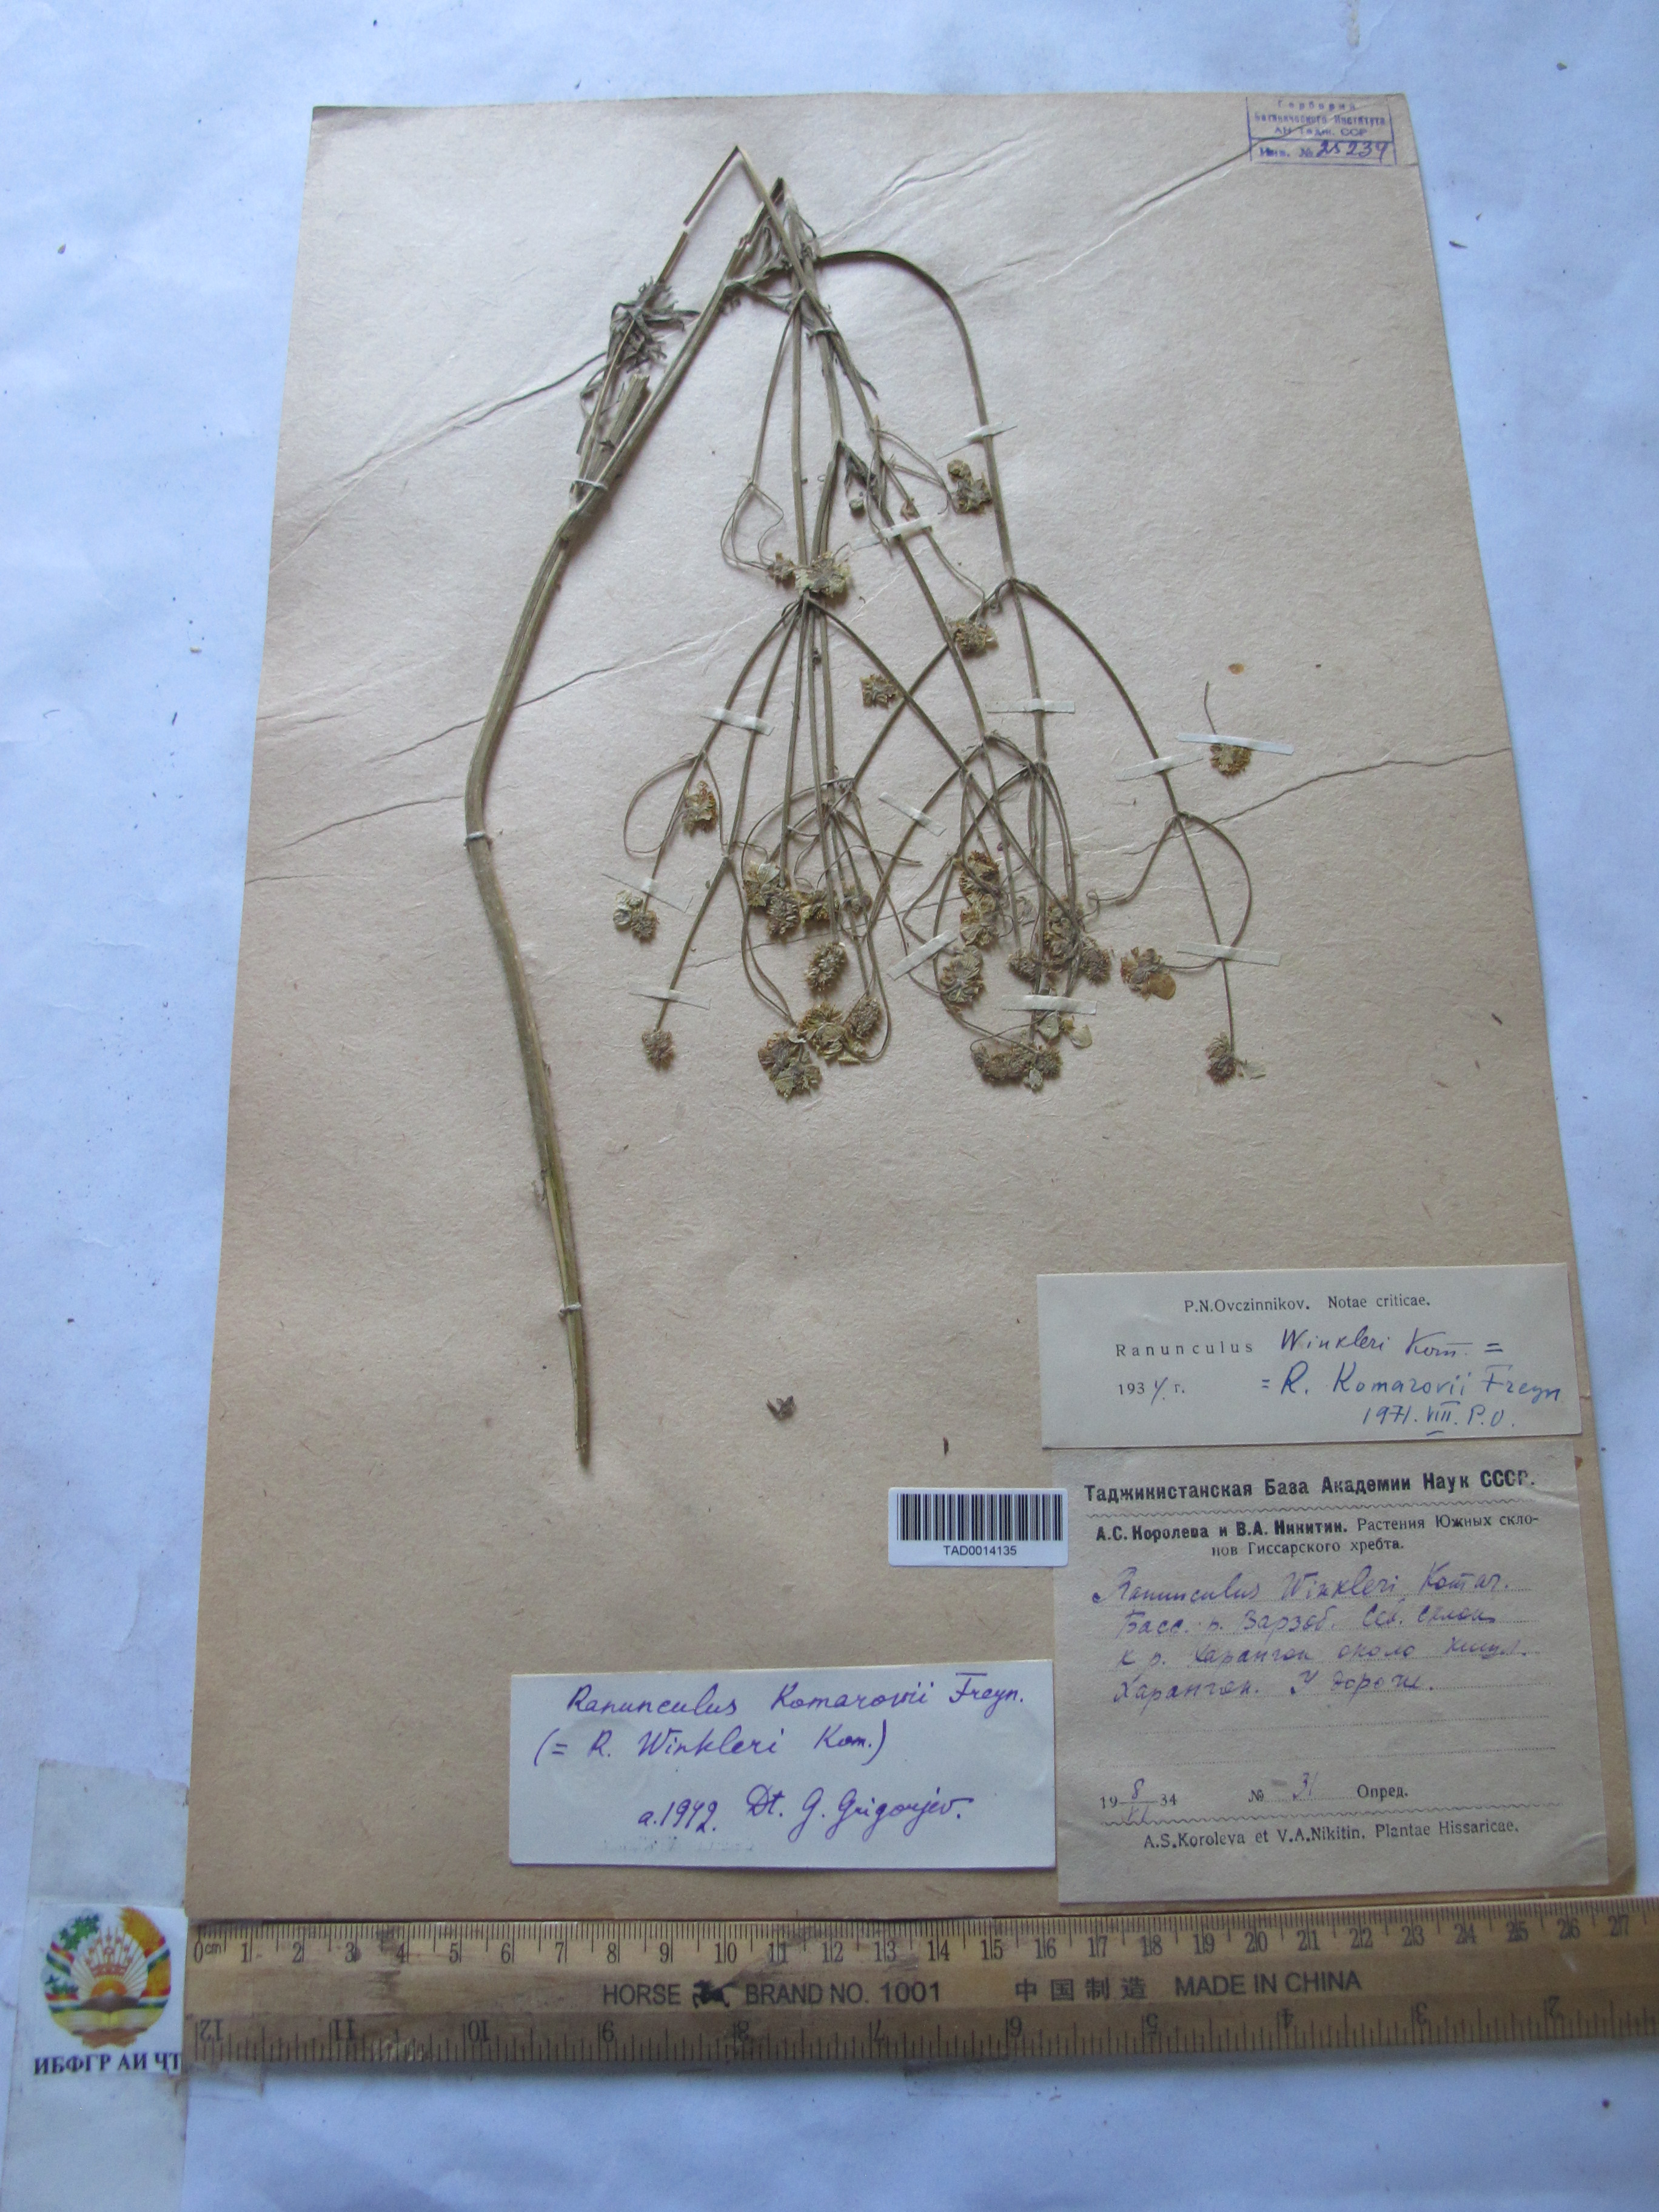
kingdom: Plantae
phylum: Tracheophyta
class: Magnoliopsida
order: Ranunculales
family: Ranunculaceae
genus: Ranunculus
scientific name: Ranunculus komarovii
